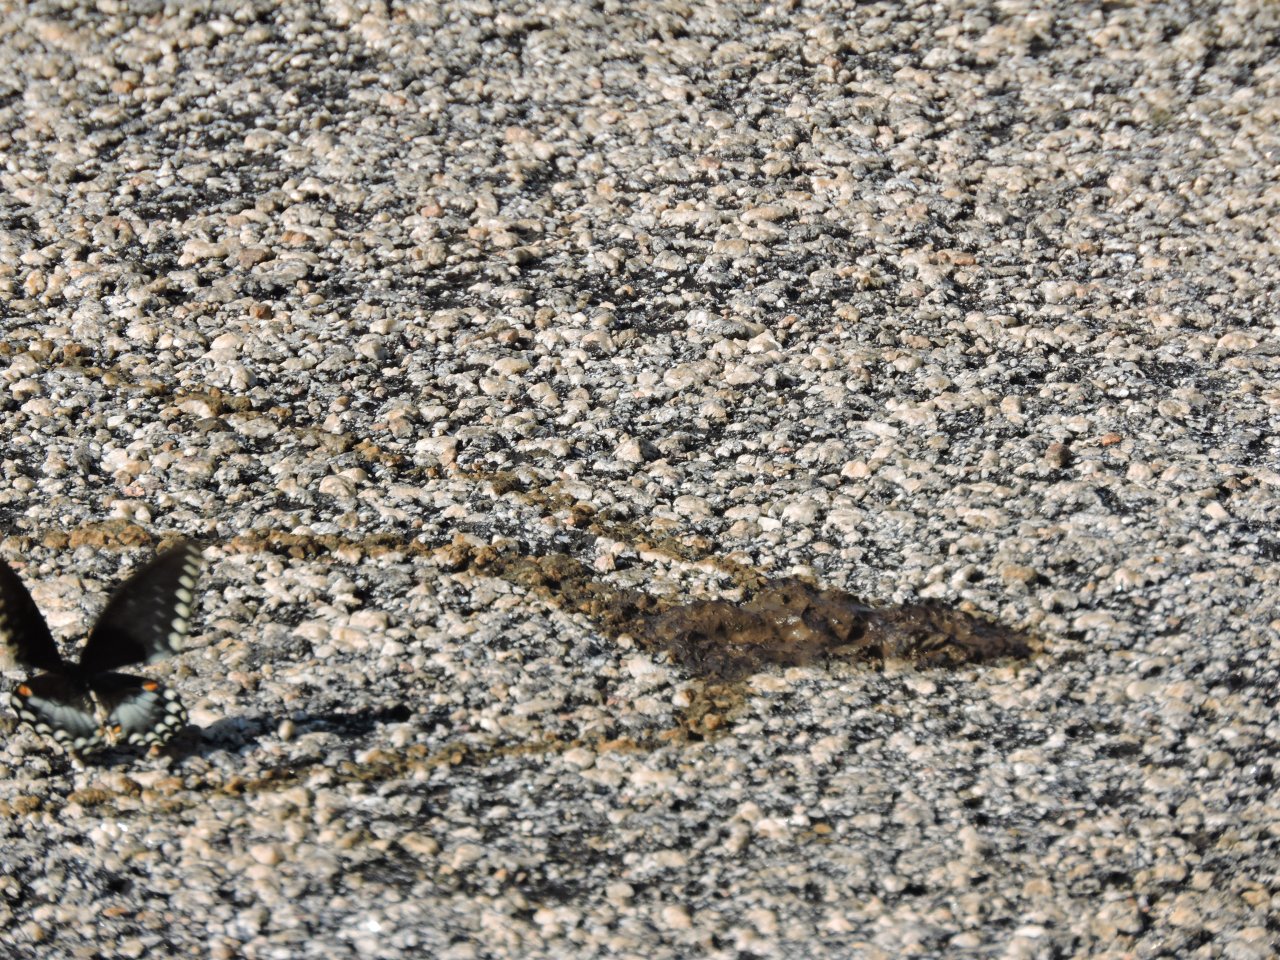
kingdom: Animalia
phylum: Arthropoda
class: Insecta
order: Lepidoptera
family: Papilionidae
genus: Pterourus
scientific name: Pterourus troilus
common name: Spicebush Swallowtail
